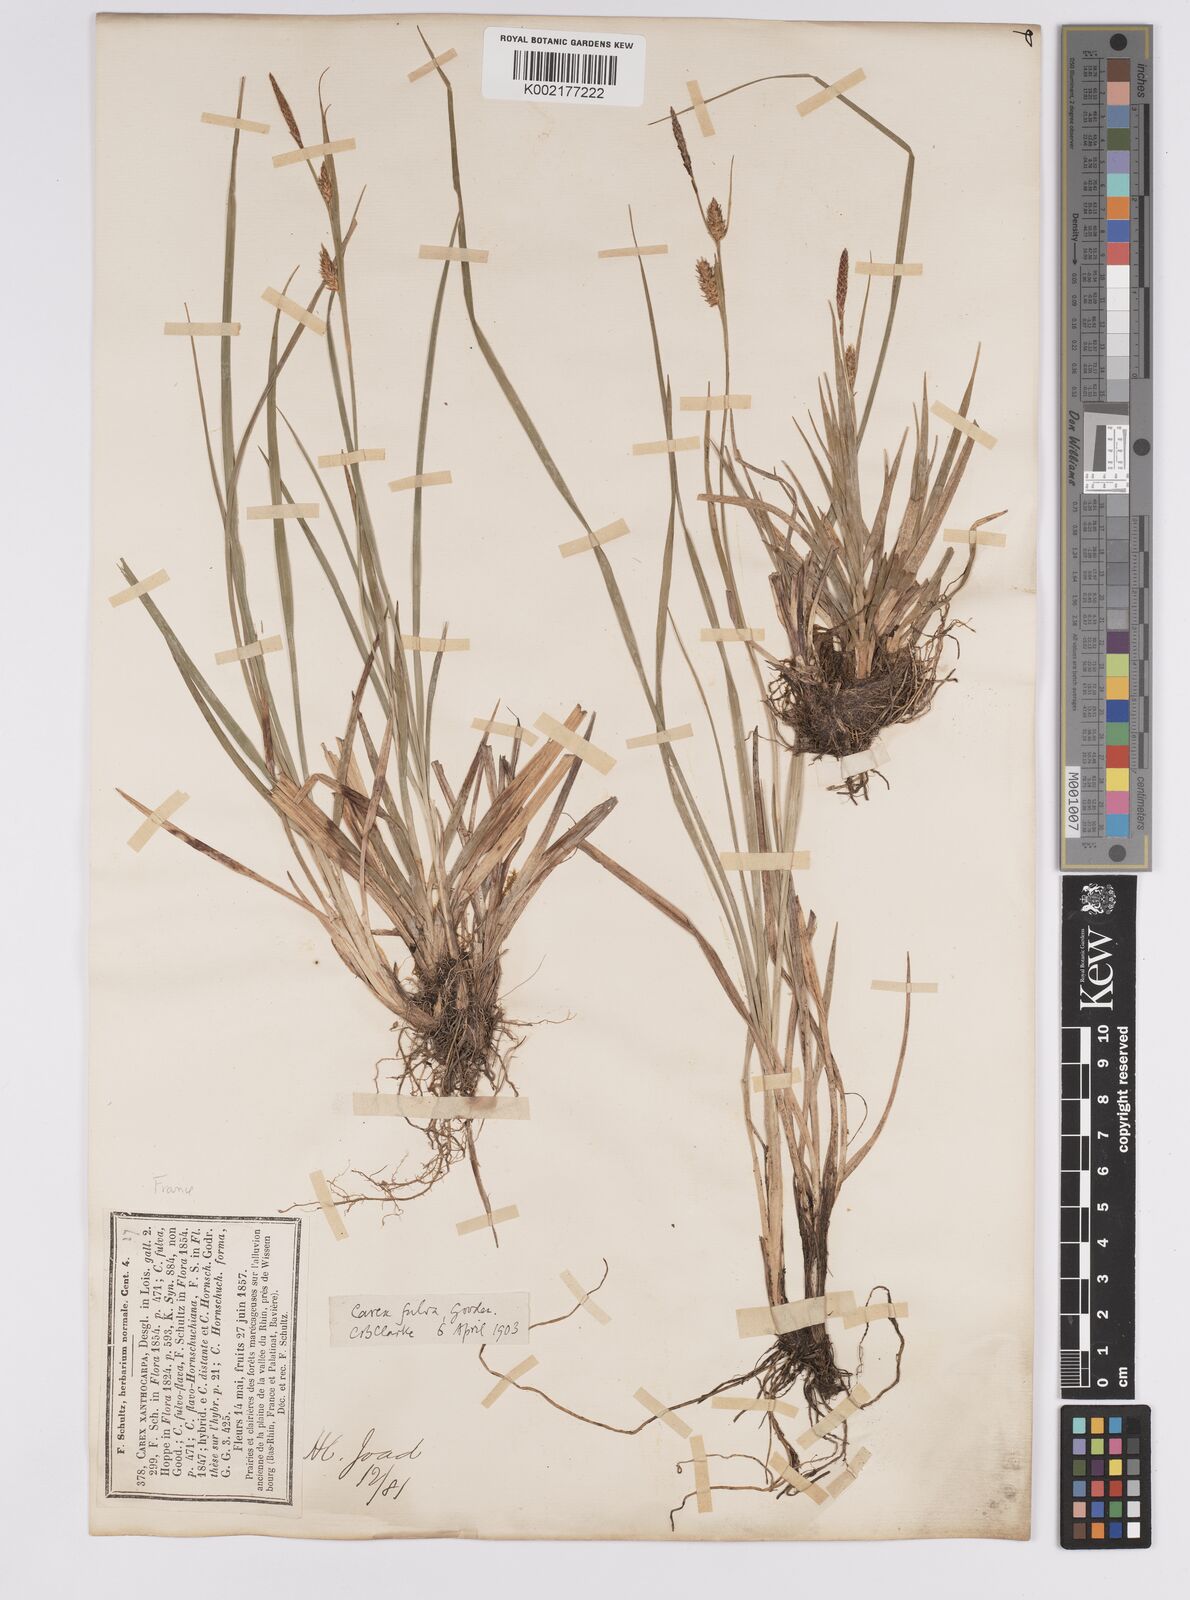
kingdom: Plantae
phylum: Tracheophyta
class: Liliopsida
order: Poales
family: Cyperaceae
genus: Carex
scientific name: Carex hostiana
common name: Tawny sedge
